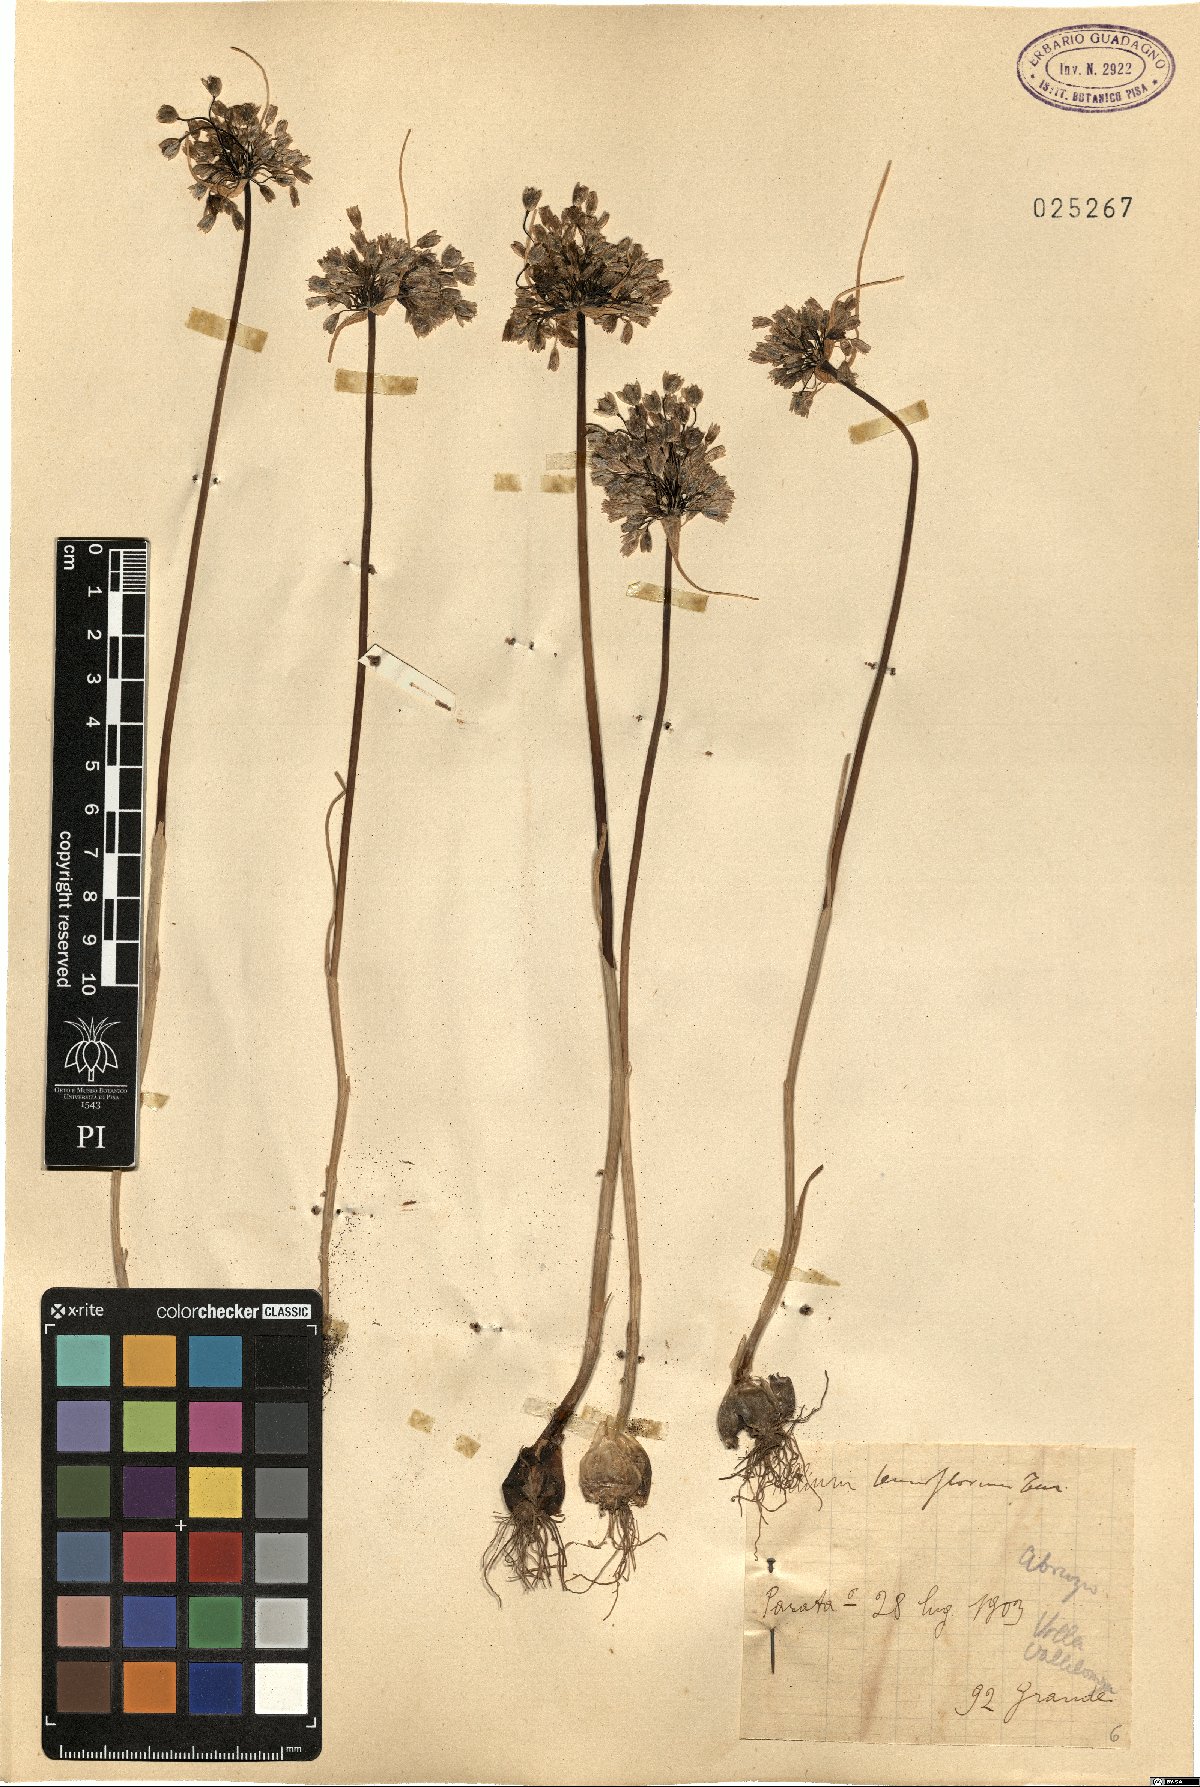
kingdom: Plantae
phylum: Tracheophyta
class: Liliopsida
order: Asparagales
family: Amaryllidaceae
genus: Allium
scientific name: Allium tenuiflorum
